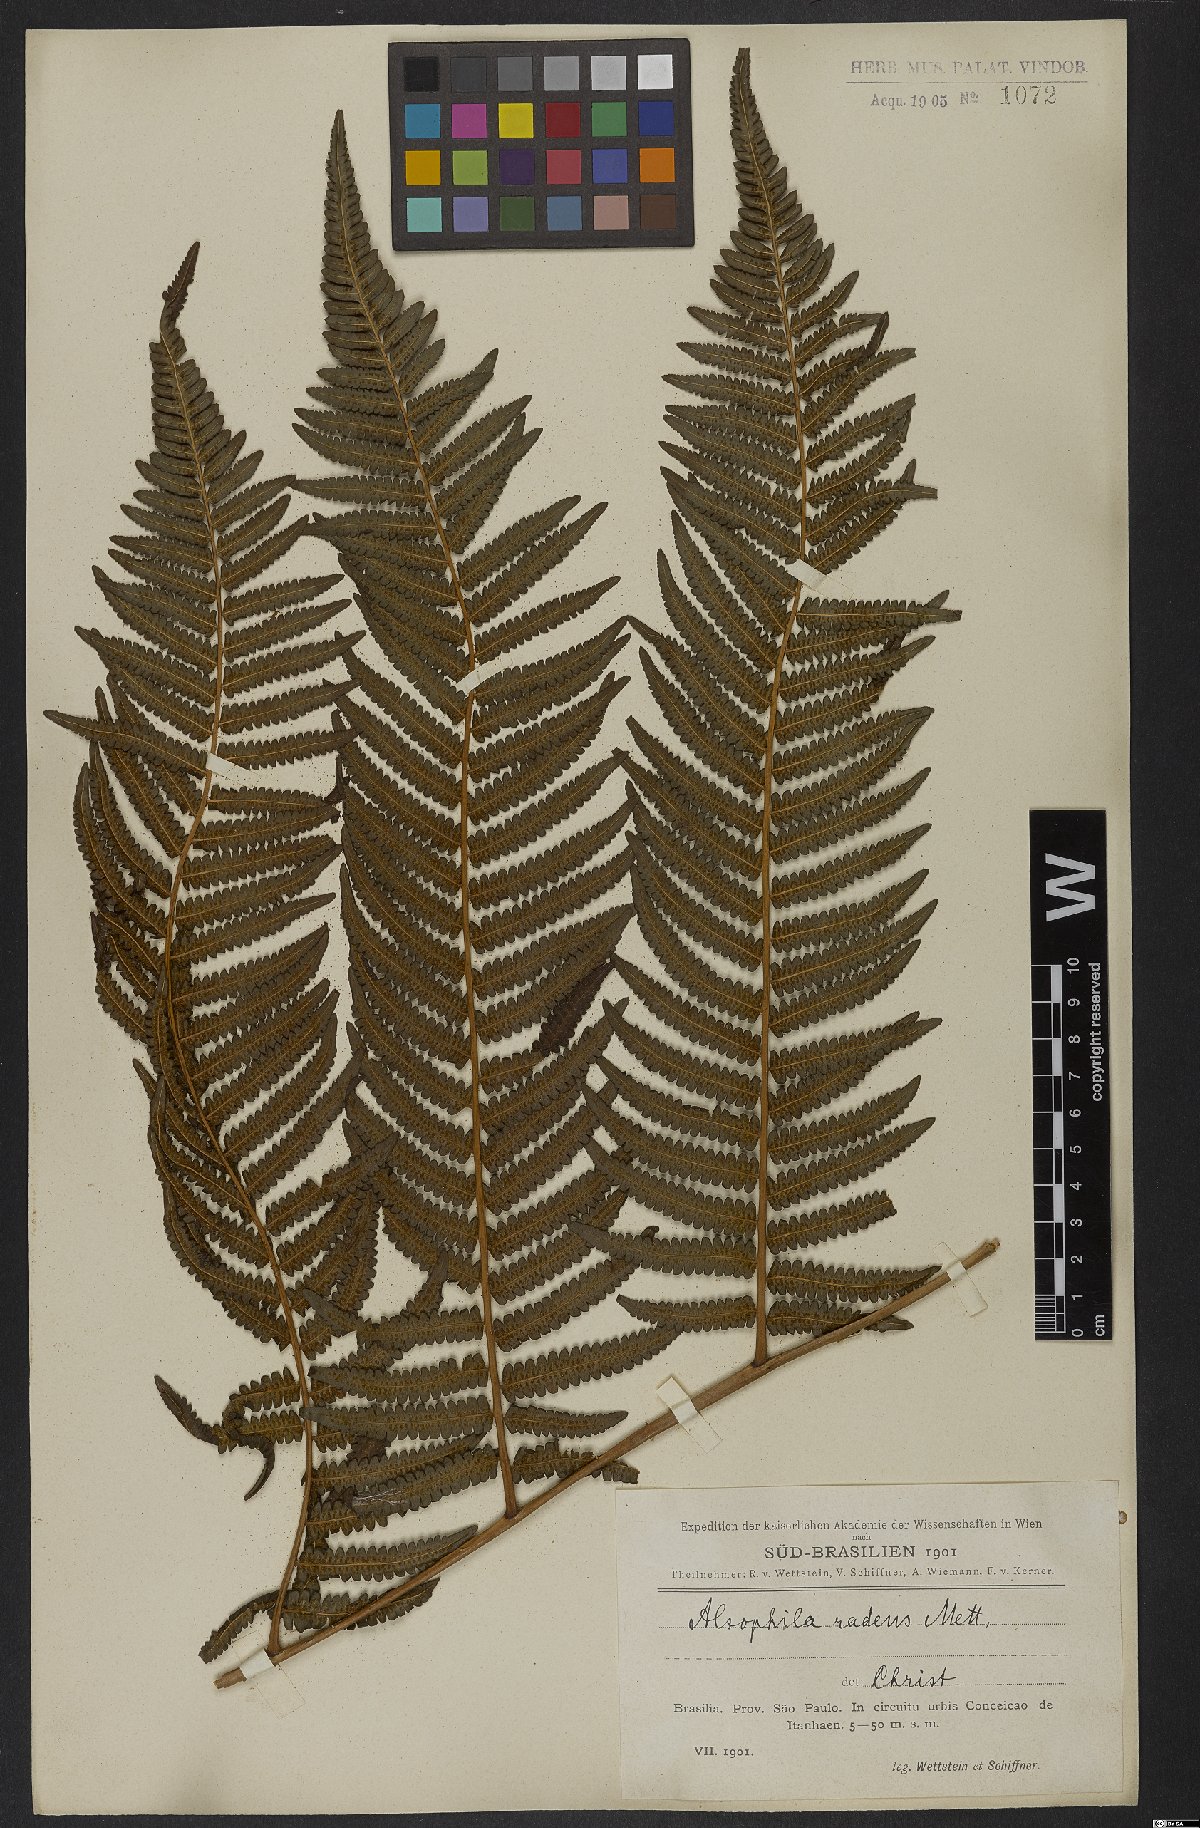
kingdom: Plantae
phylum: Tracheophyta
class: Polypodiopsida
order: Cyatheales
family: Cyatheaceae
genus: Cyathea
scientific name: Cyathea atrovirens
